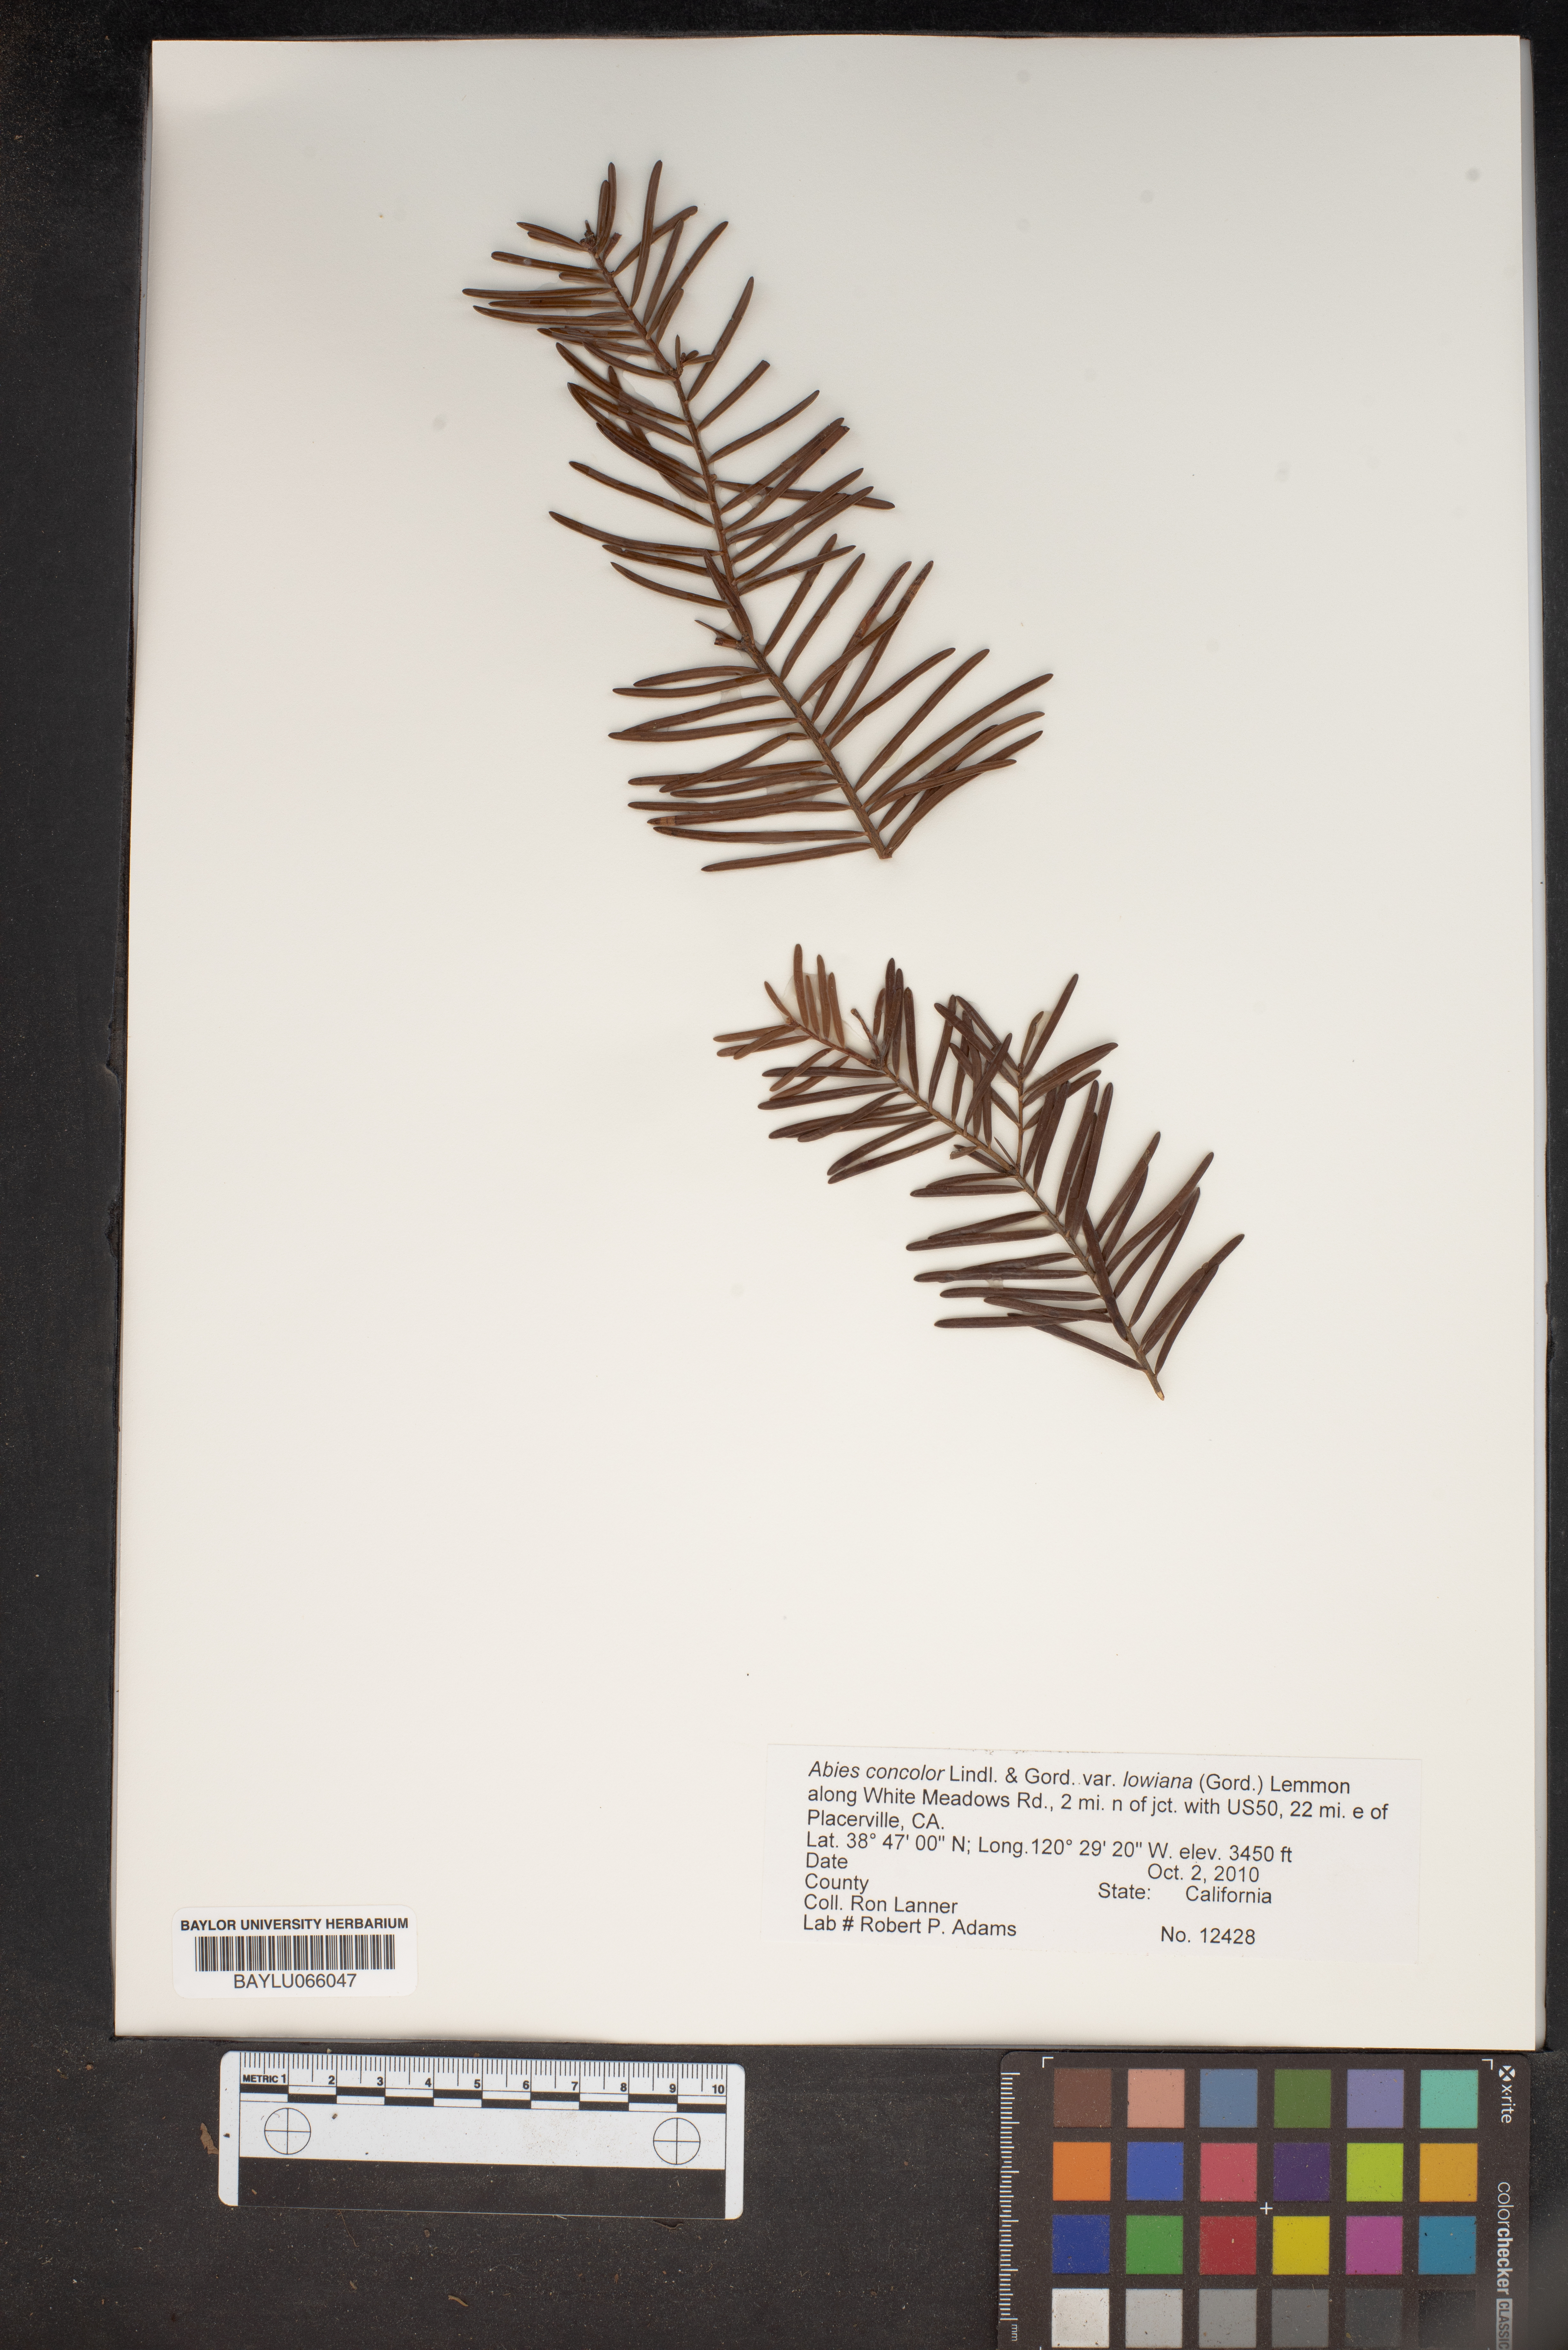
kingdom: Plantae
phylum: Tracheophyta
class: Pinopsida
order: Pinales
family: Pinaceae
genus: Abies
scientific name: Abies concolor
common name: Colorado fir
